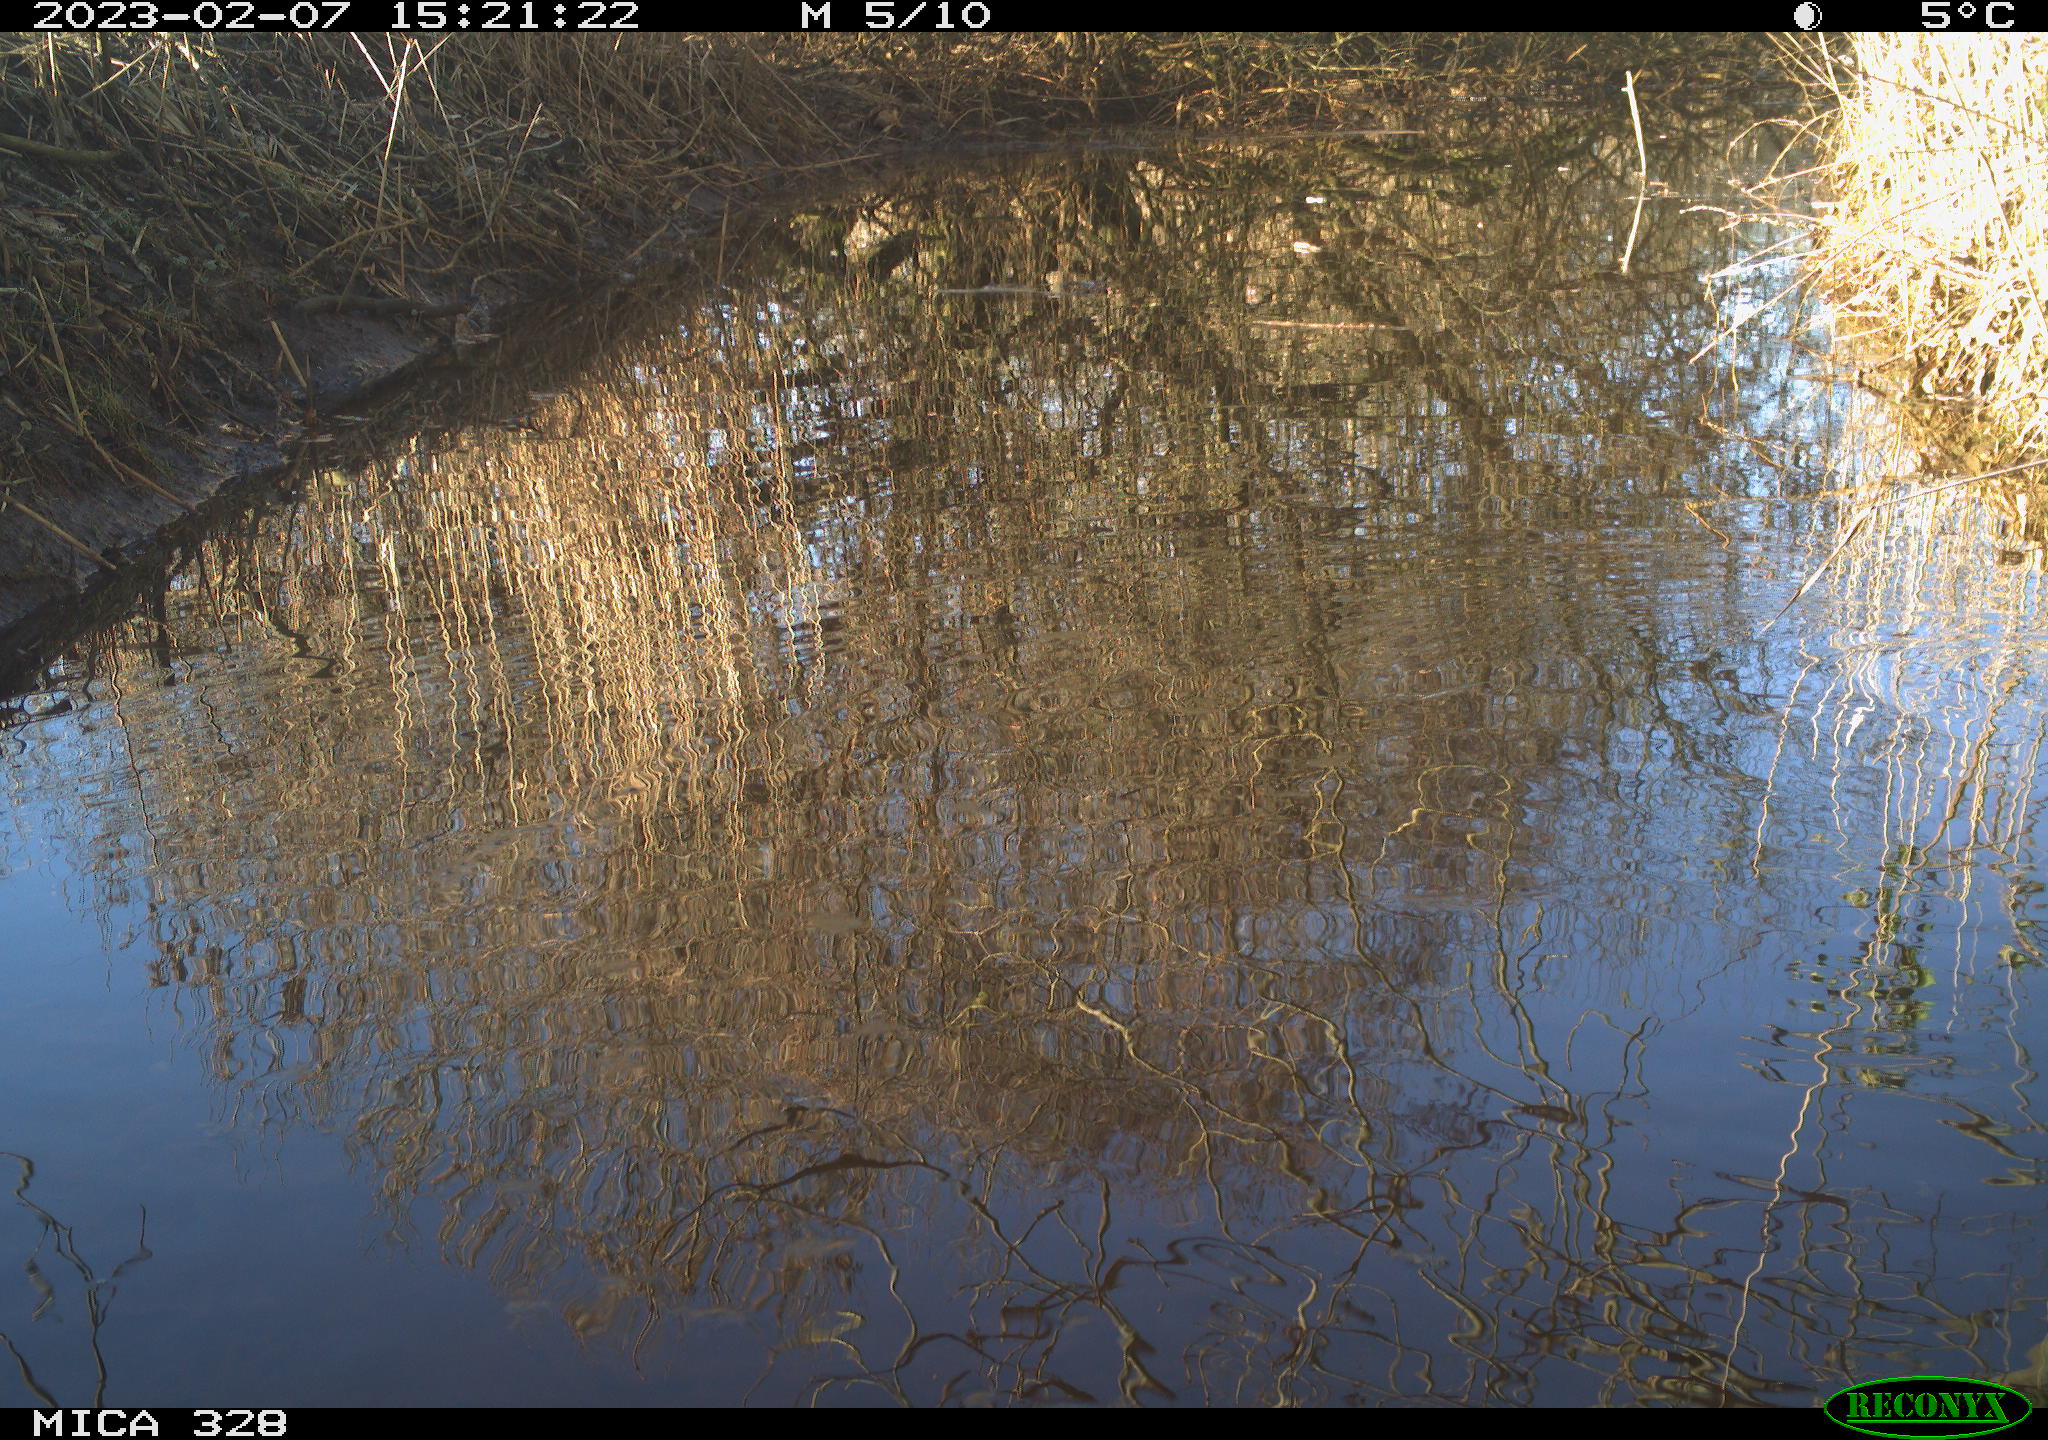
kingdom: Animalia
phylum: Chordata
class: Aves
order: Gruiformes
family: Rallidae
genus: Gallinula
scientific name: Gallinula chloropus
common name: Common moorhen
